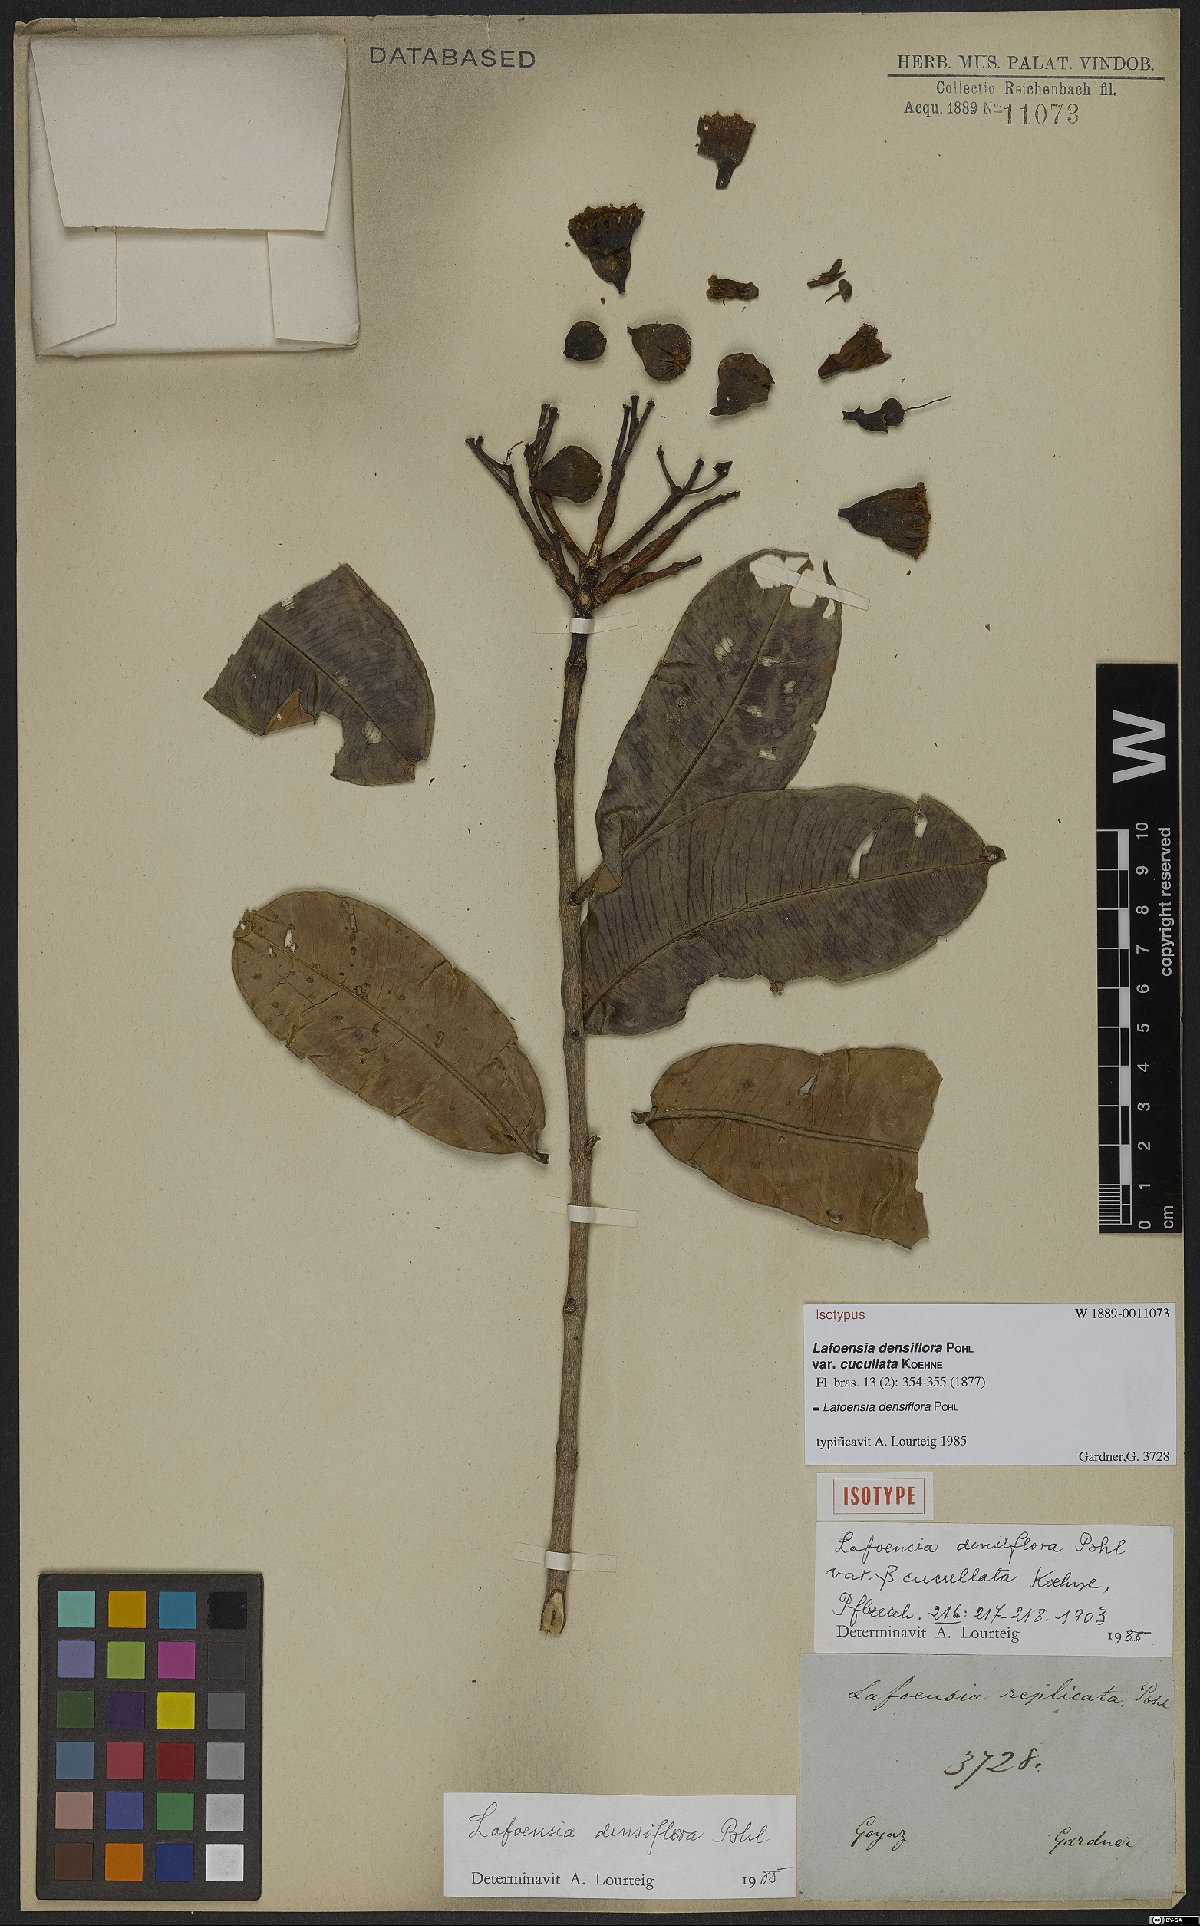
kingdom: Plantae
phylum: Tracheophyta
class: Magnoliopsida
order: Myrtales
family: Lythraceae
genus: Lafoensia
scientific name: Lafoensia vandelliana
